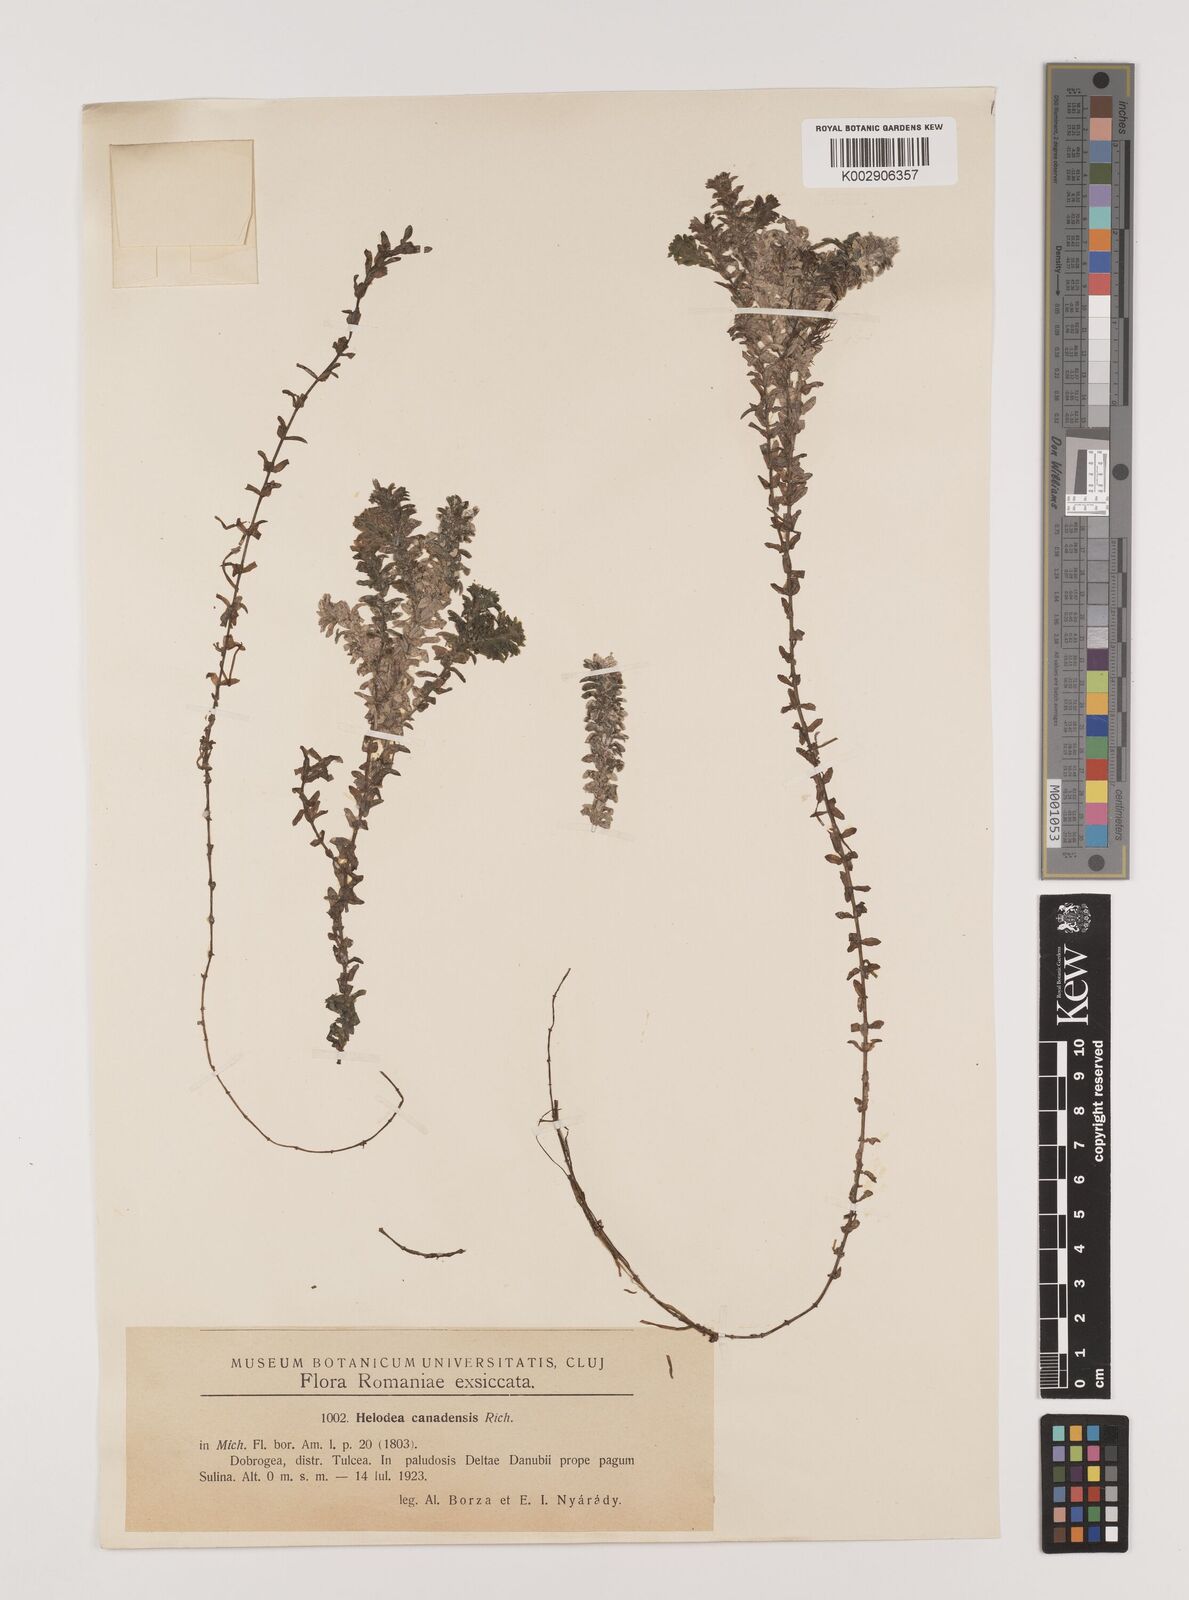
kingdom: Plantae
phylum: Tracheophyta
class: Liliopsida
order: Alismatales
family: Hydrocharitaceae
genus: Elodea
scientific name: Elodea canadensis
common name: Canadian waterweed
